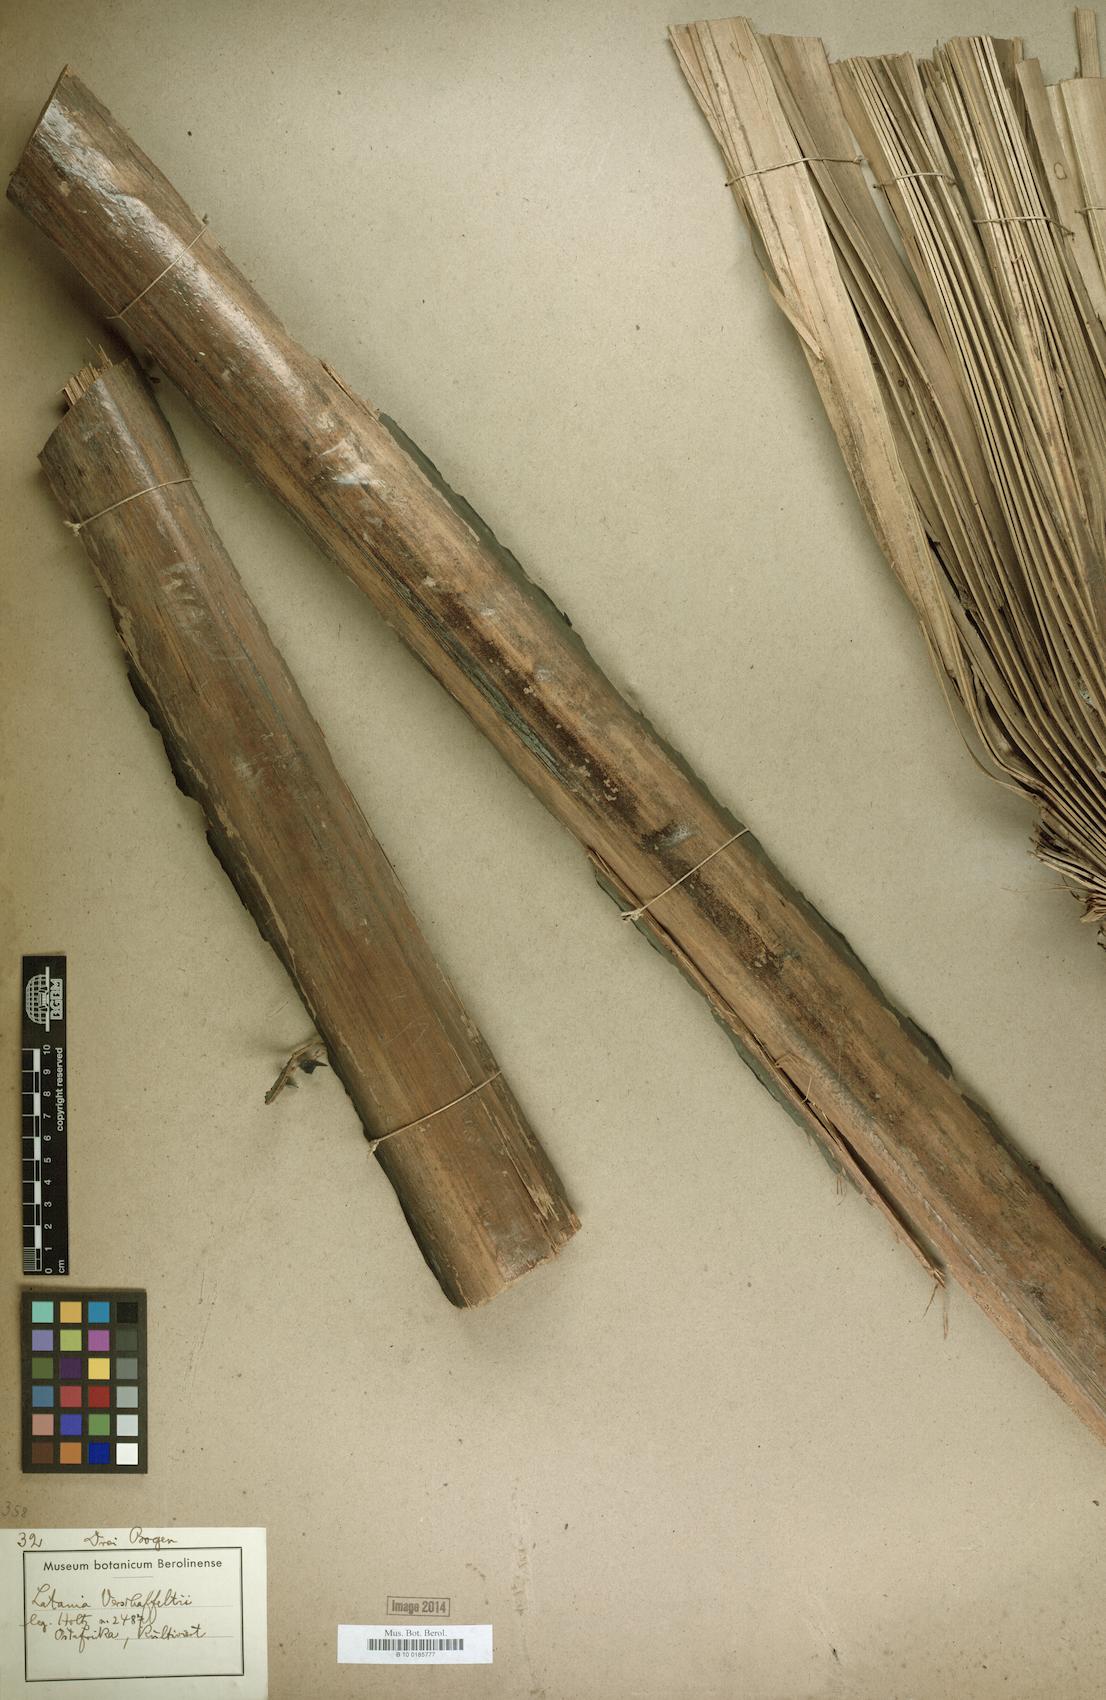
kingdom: Plantae
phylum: Tracheophyta
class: Liliopsida
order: Arecales
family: Arecaceae
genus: Latania
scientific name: Latania verschaffeltii
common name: Yellow latan
